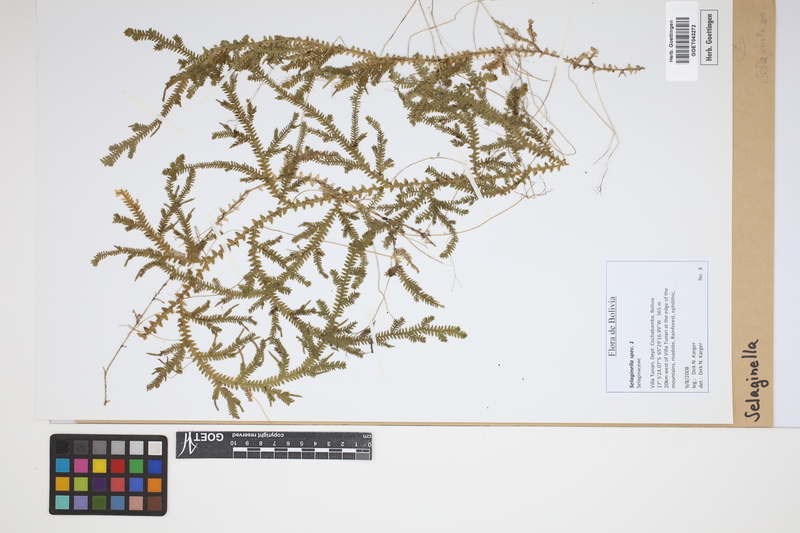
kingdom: Plantae
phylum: Tracheophyta
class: Lycopodiopsida
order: Selaginellales
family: Selaginellaceae
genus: Selaginella
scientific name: Selaginella
